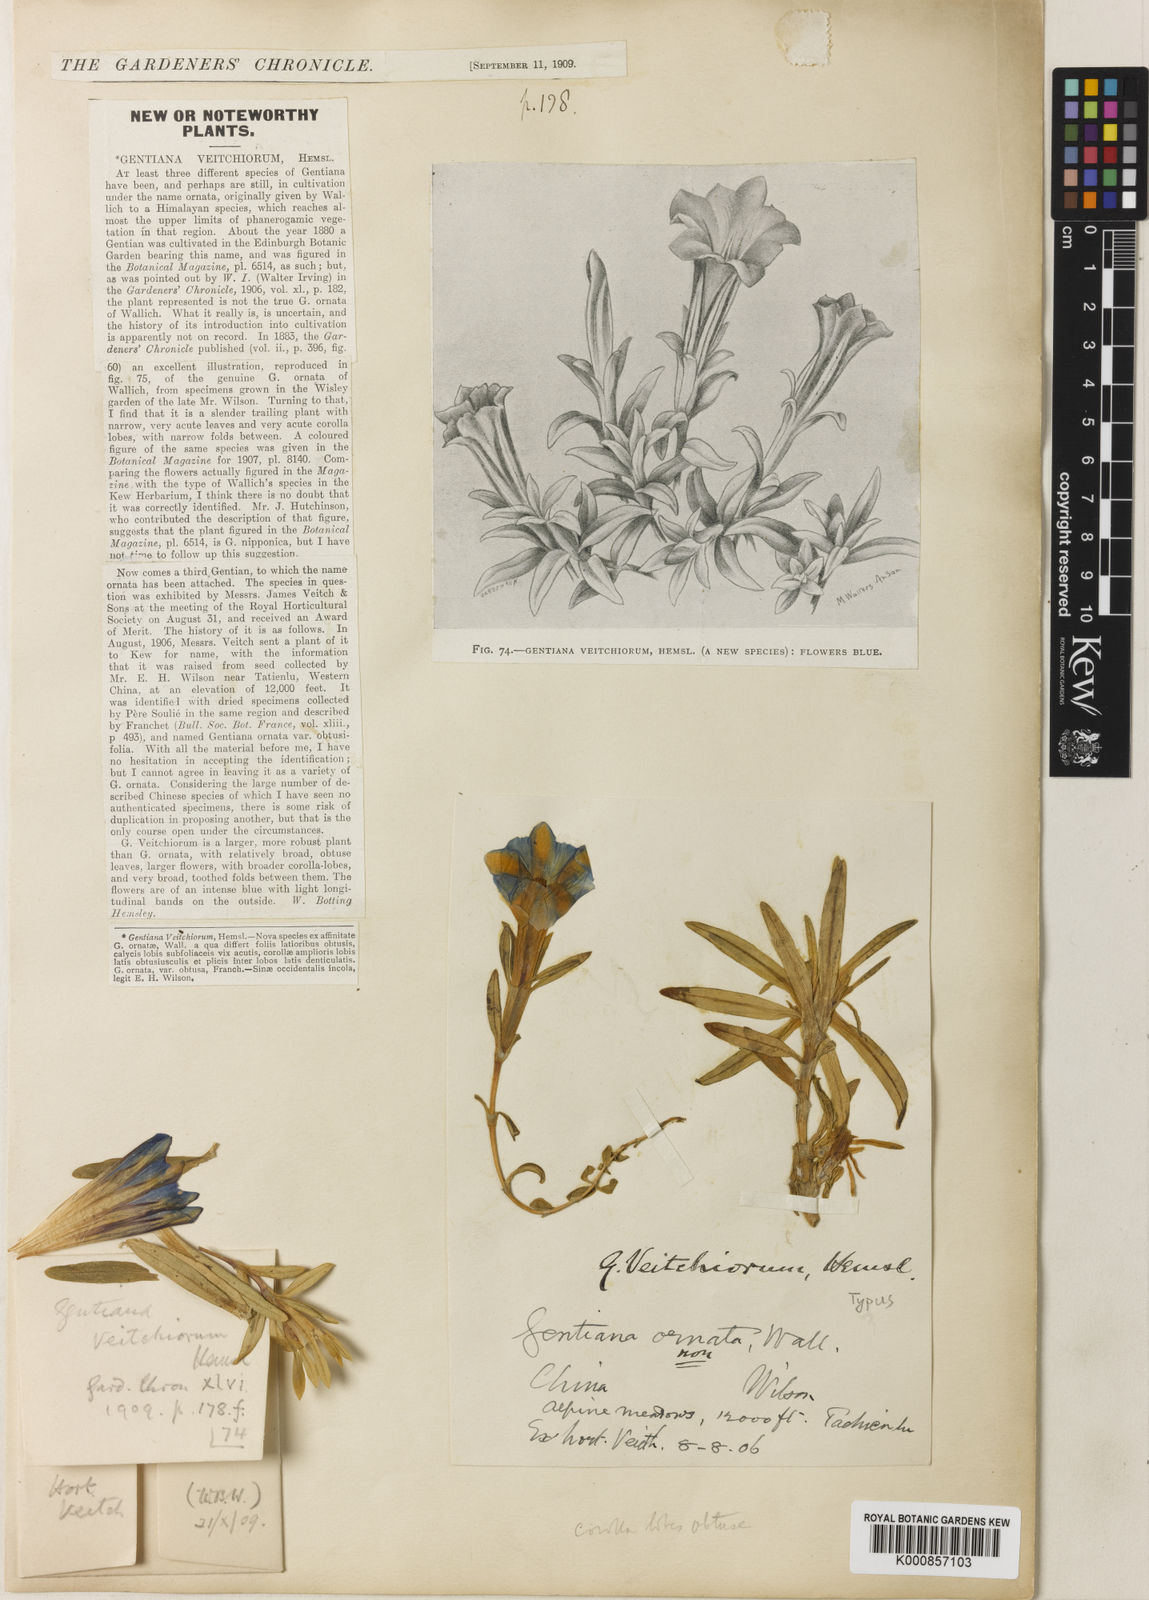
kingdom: Plantae
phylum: Tracheophyta
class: Magnoliopsida
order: Gentianales
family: Gentianaceae
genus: Gentiana
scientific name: Gentiana veitchiorum
